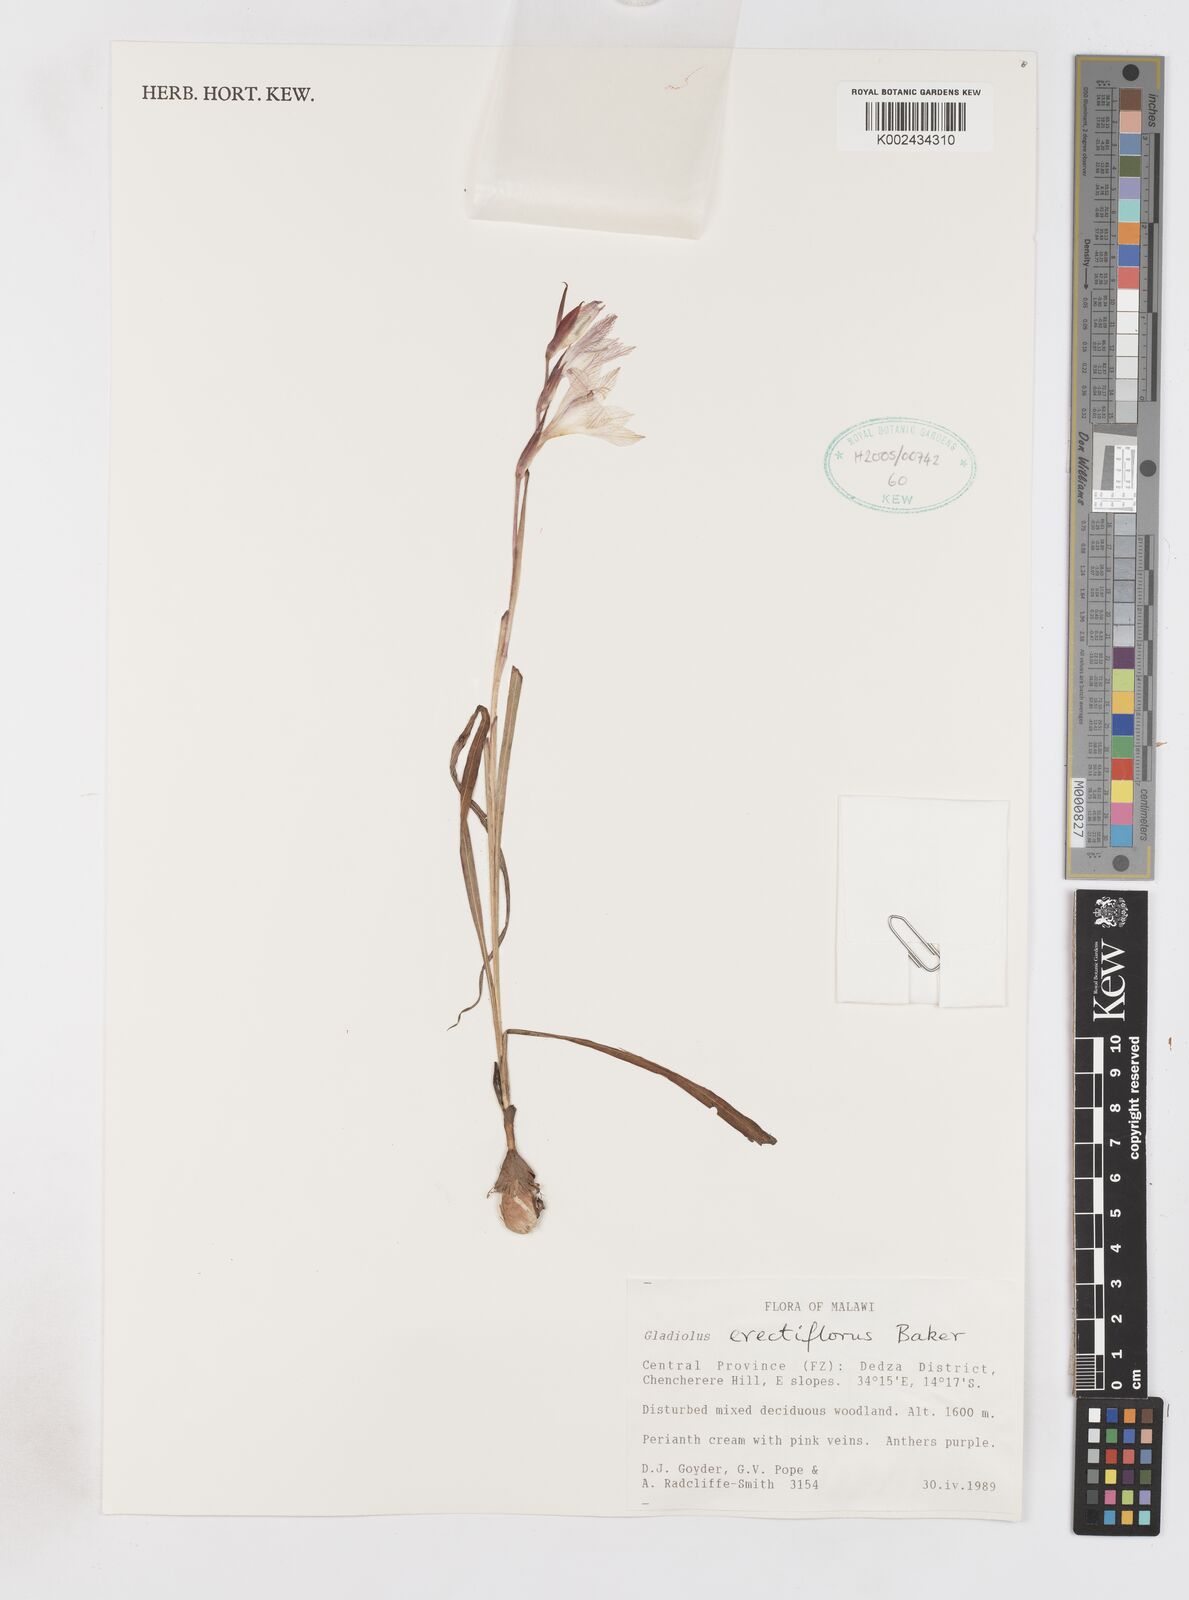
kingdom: Plantae
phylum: Tracheophyta
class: Liliopsida
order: Asparagales
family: Iridaceae
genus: Gladiolus
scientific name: Gladiolus erectiflorus
